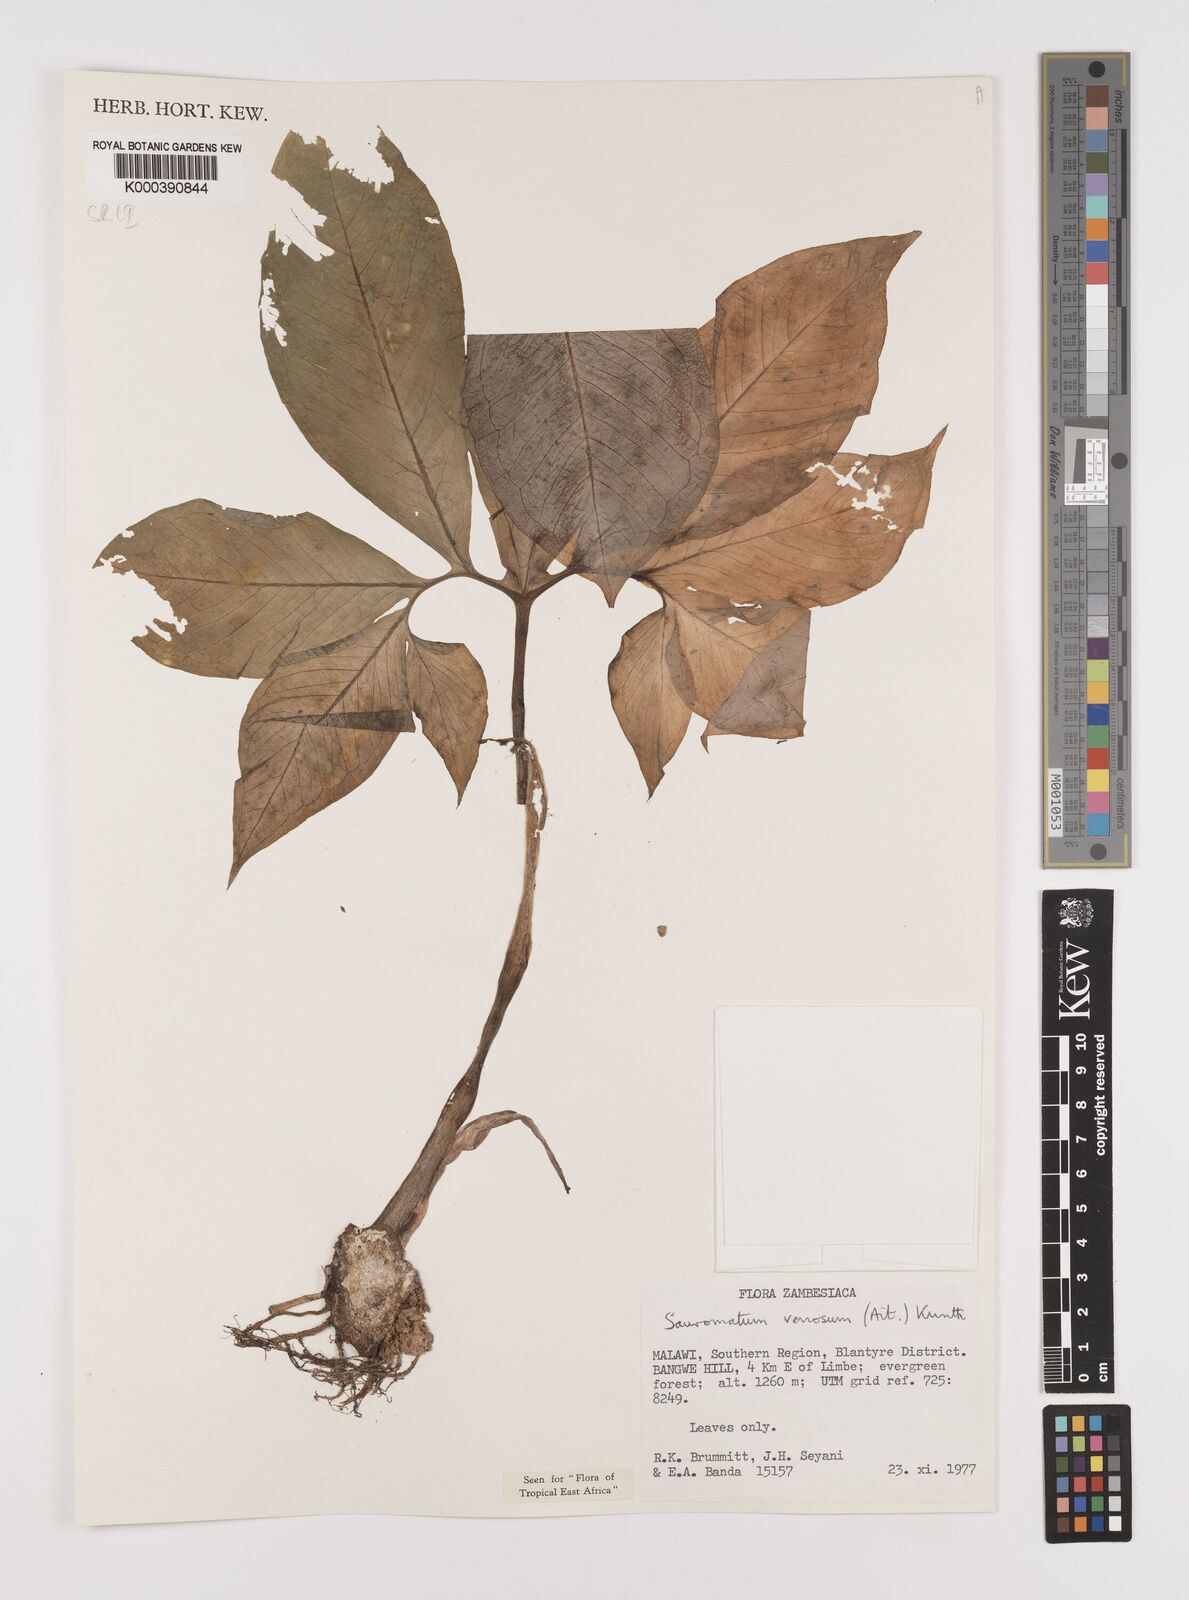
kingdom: Plantae
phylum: Tracheophyta
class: Liliopsida
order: Alismatales
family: Araceae
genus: Sauromatum
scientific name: Sauromatum venosum
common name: Voodoo lily
